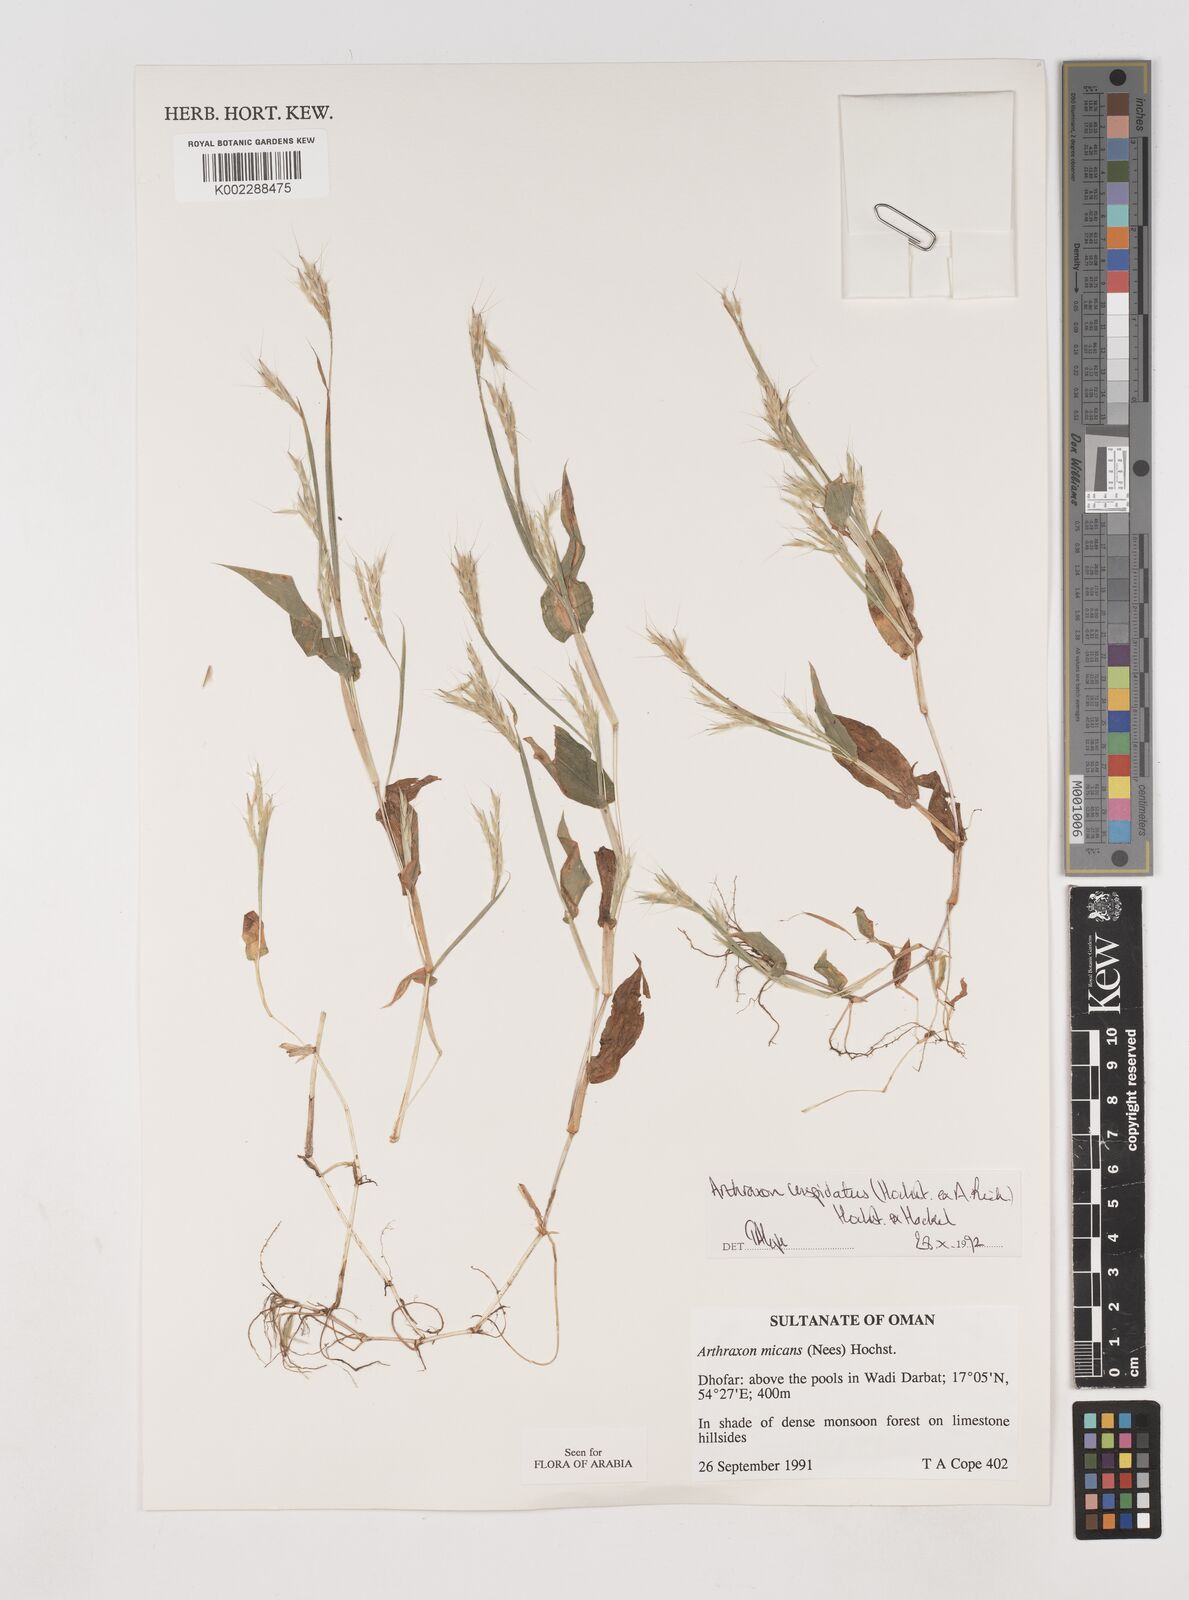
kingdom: Plantae
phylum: Tracheophyta
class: Liliopsida
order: Poales
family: Poaceae
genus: Arthraxon
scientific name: Arthraxon cuspidatus
